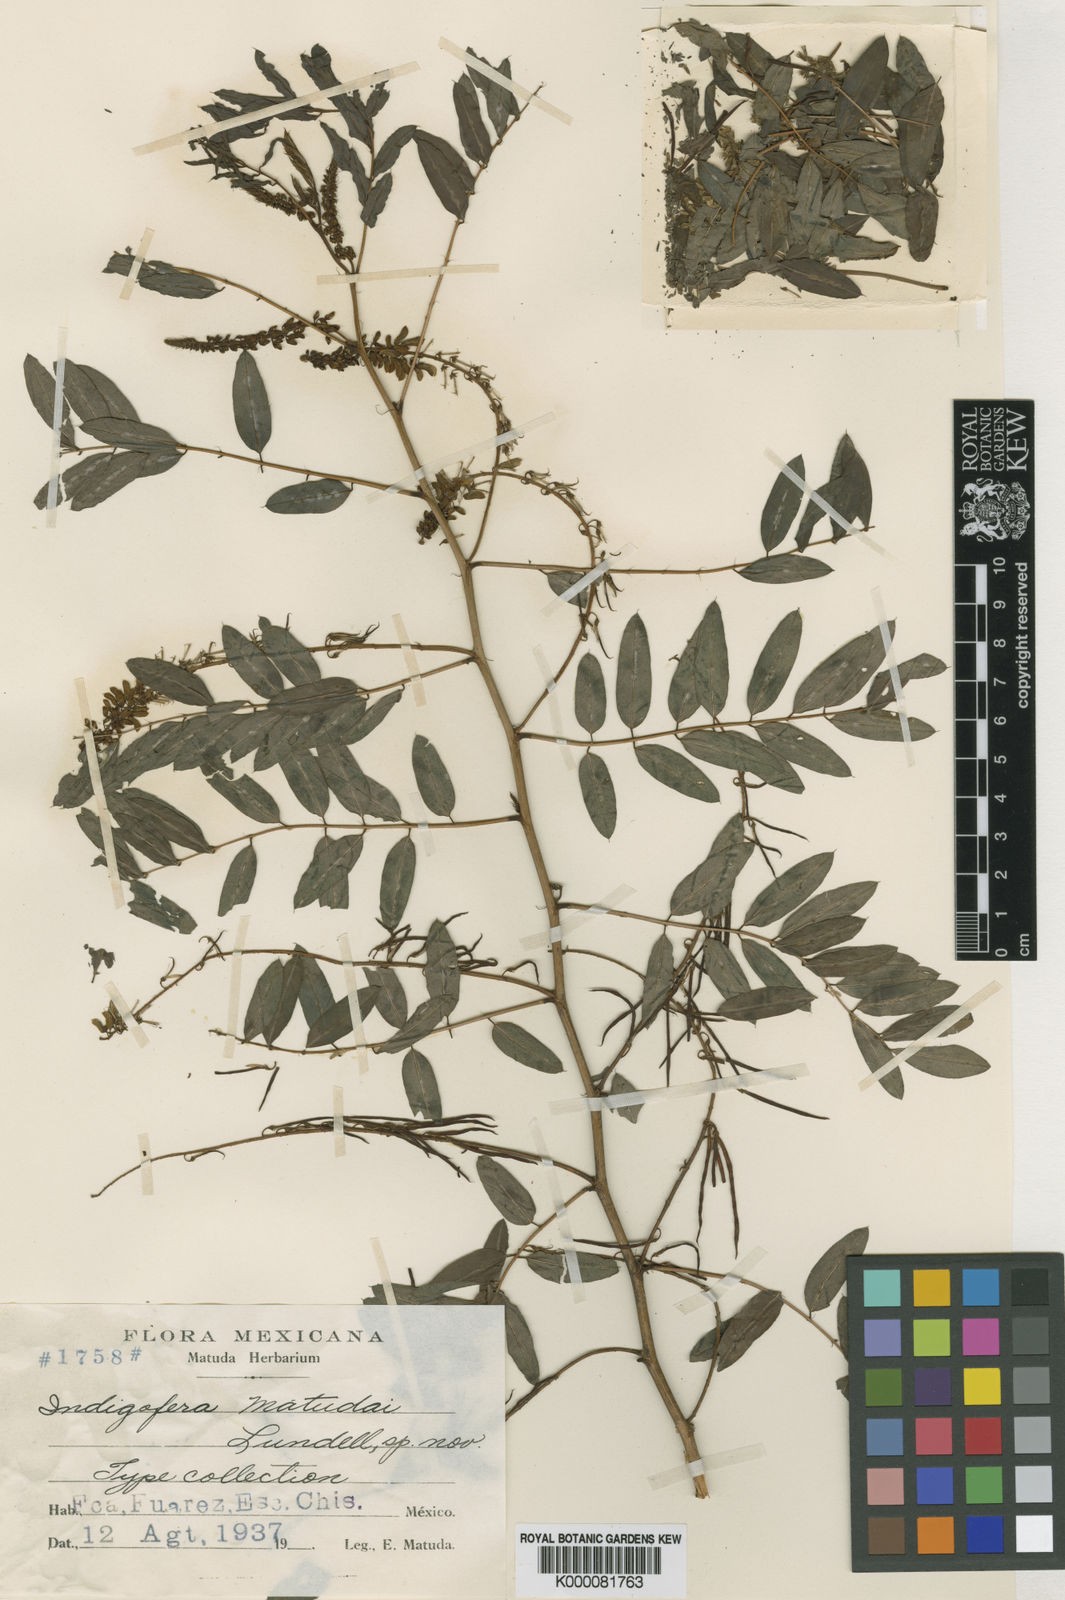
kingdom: Plantae
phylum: Tracheophyta
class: Magnoliopsida
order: Fabales
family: Fabaceae
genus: Indigofera
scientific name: Indigofera
